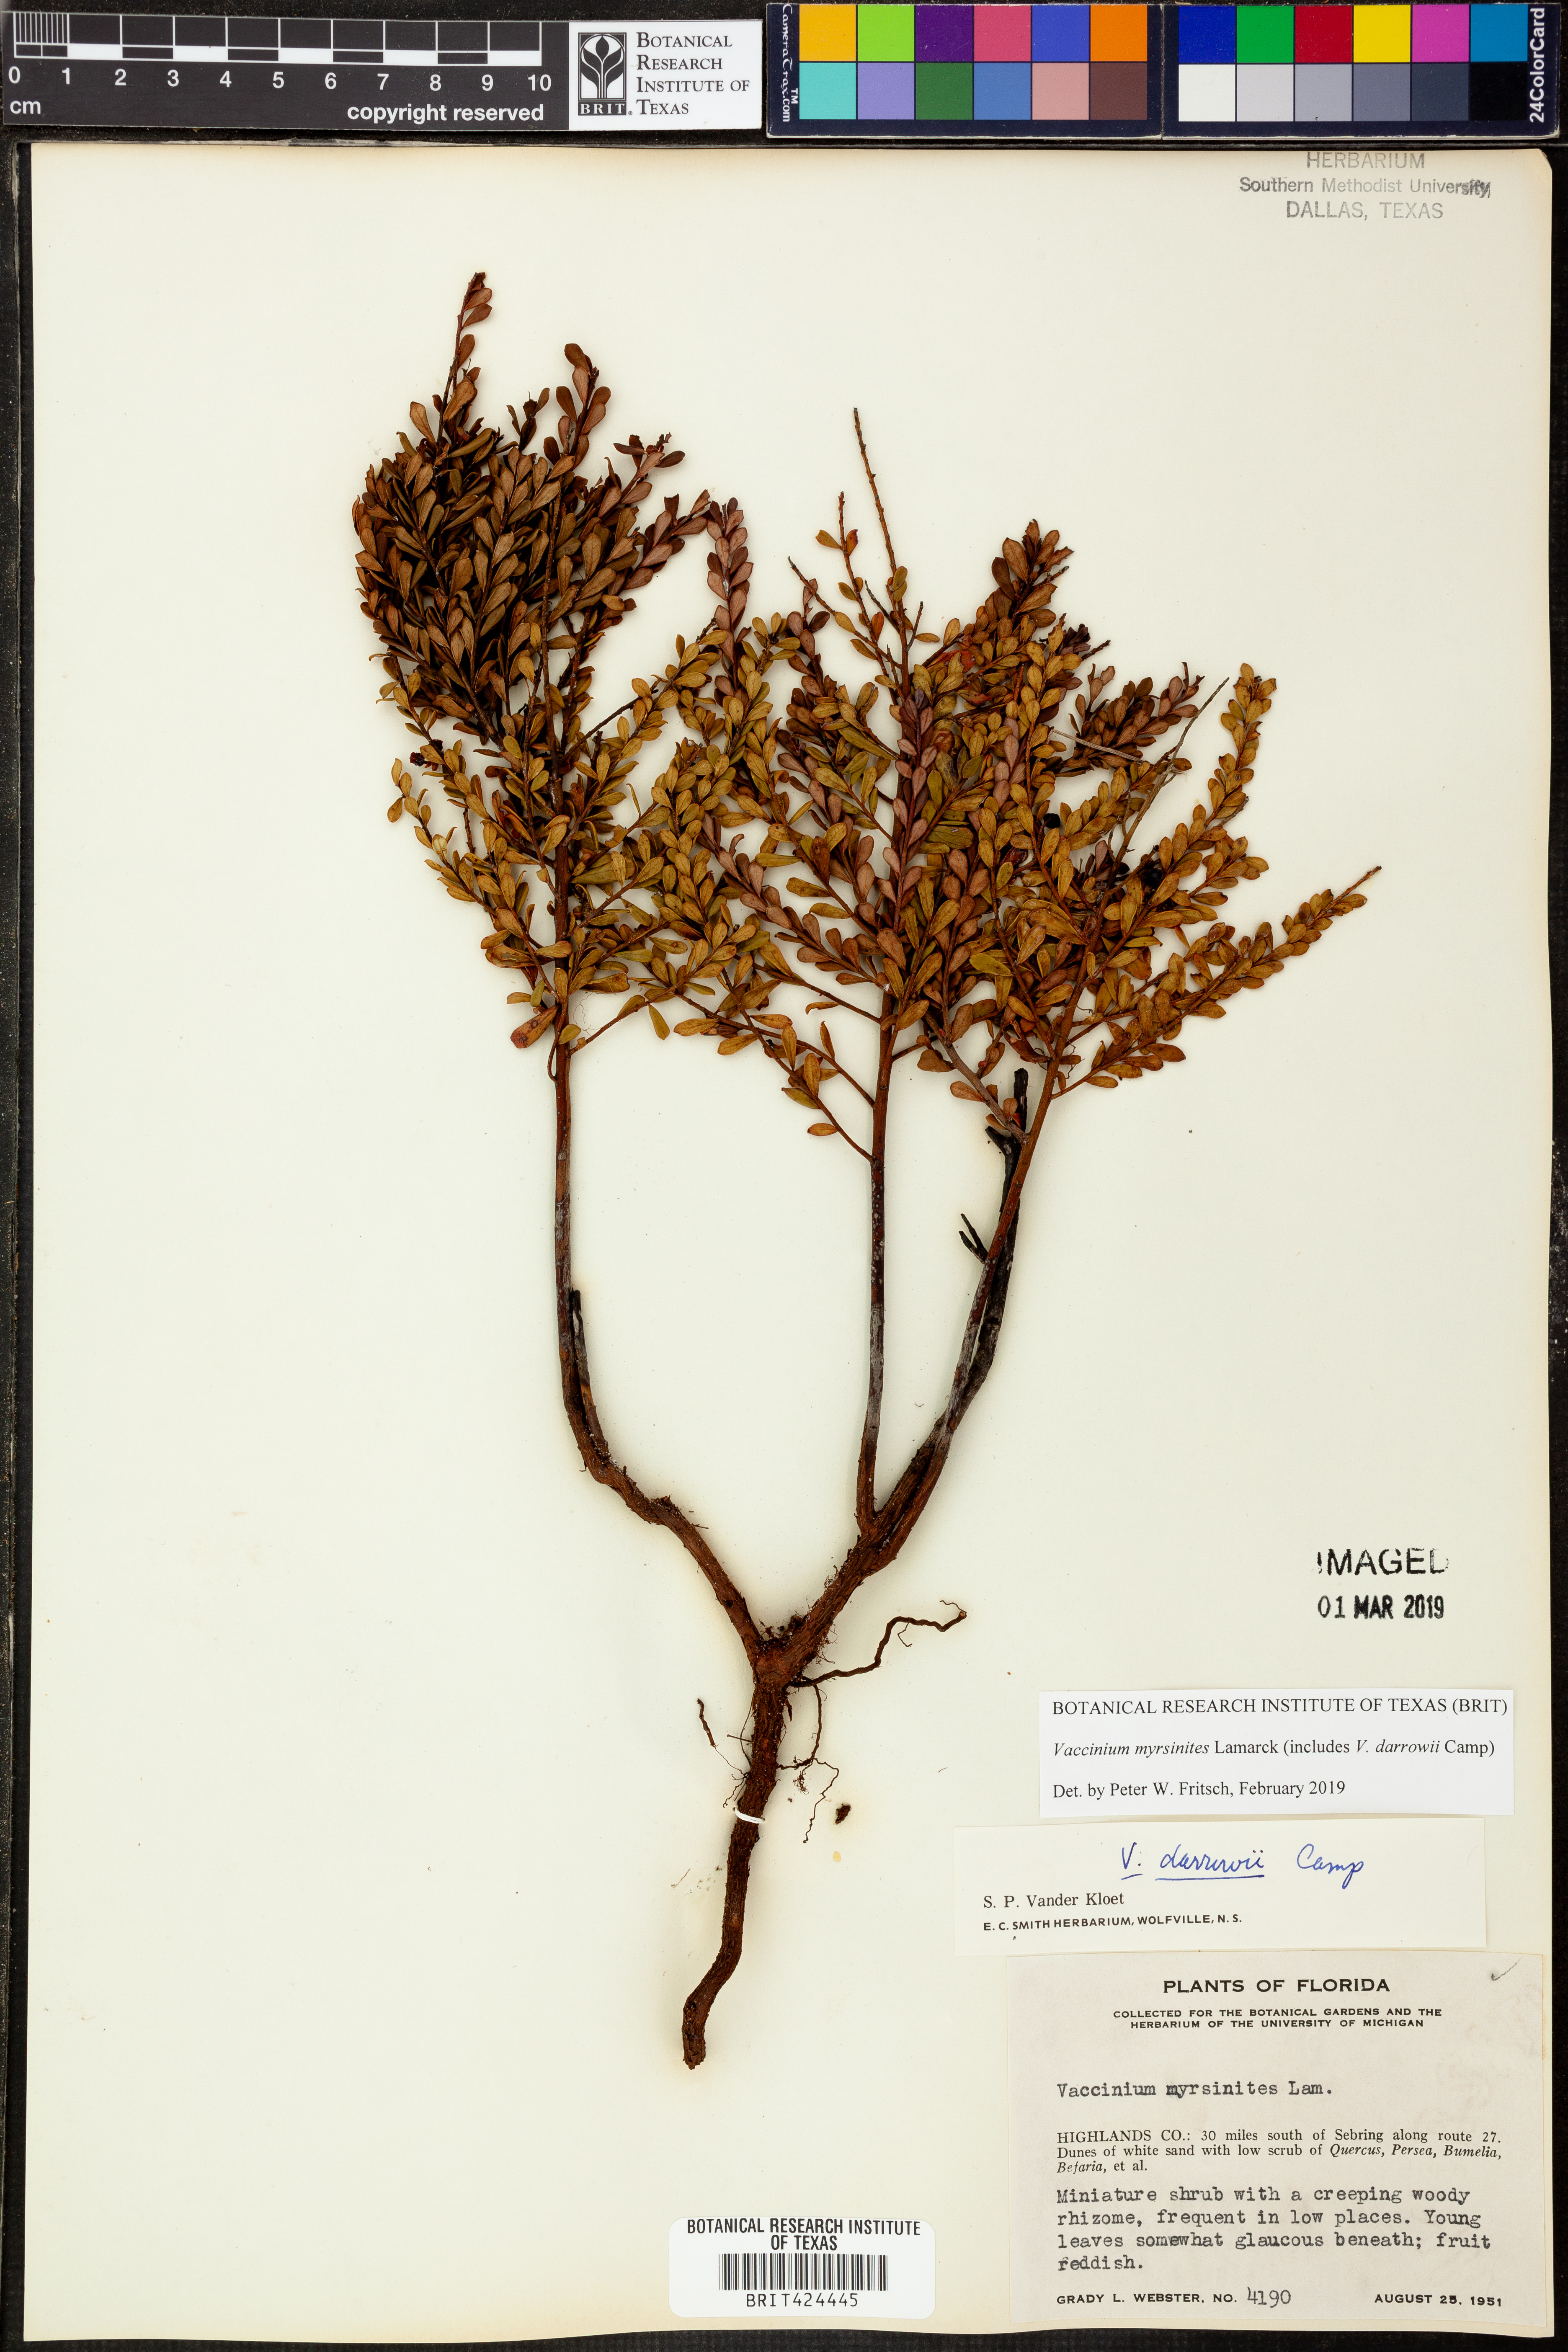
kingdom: Plantae
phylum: Tracheophyta
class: Magnoliopsida
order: Ericales
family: Ericaceae
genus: Vaccinium
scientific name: Vaccinium myrsinites
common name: Evergreen blueberry
